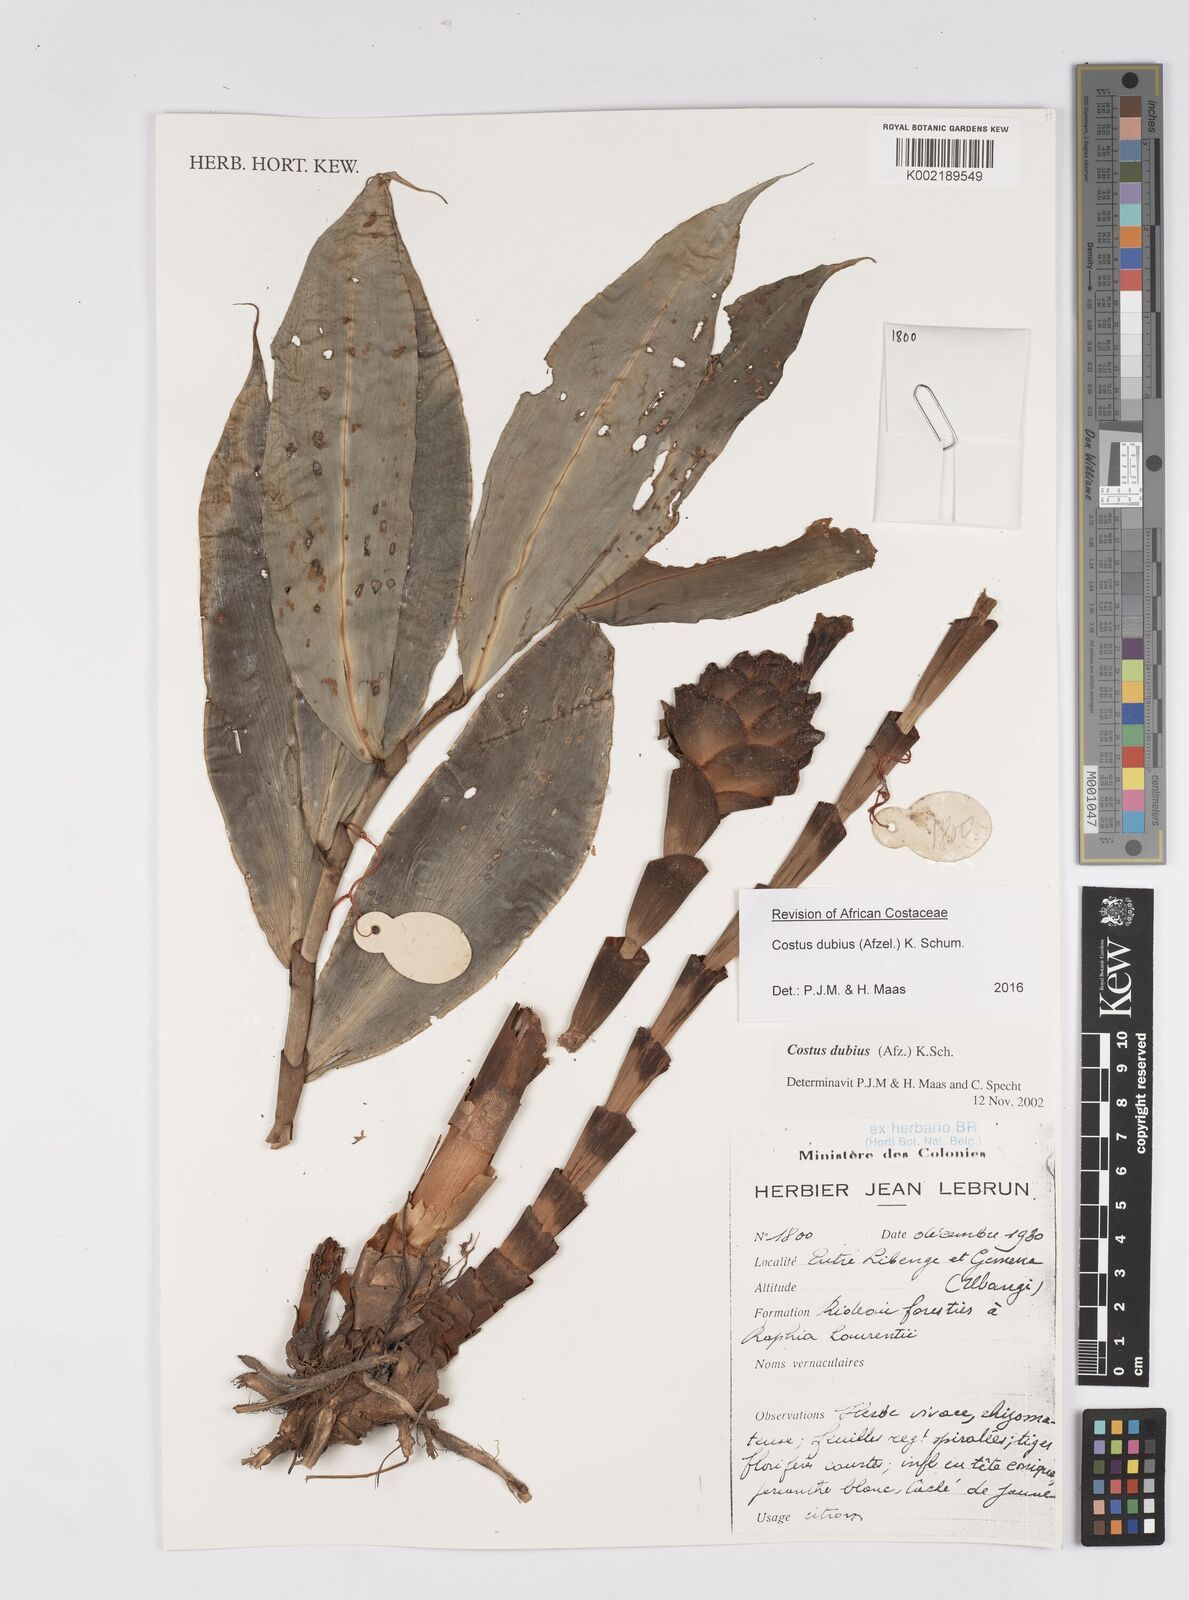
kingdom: Plantae
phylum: Tracheophyta
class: Liliopsida
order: Zingiberales
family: Costaceae
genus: Costus
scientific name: Costus dubius
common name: Costus
